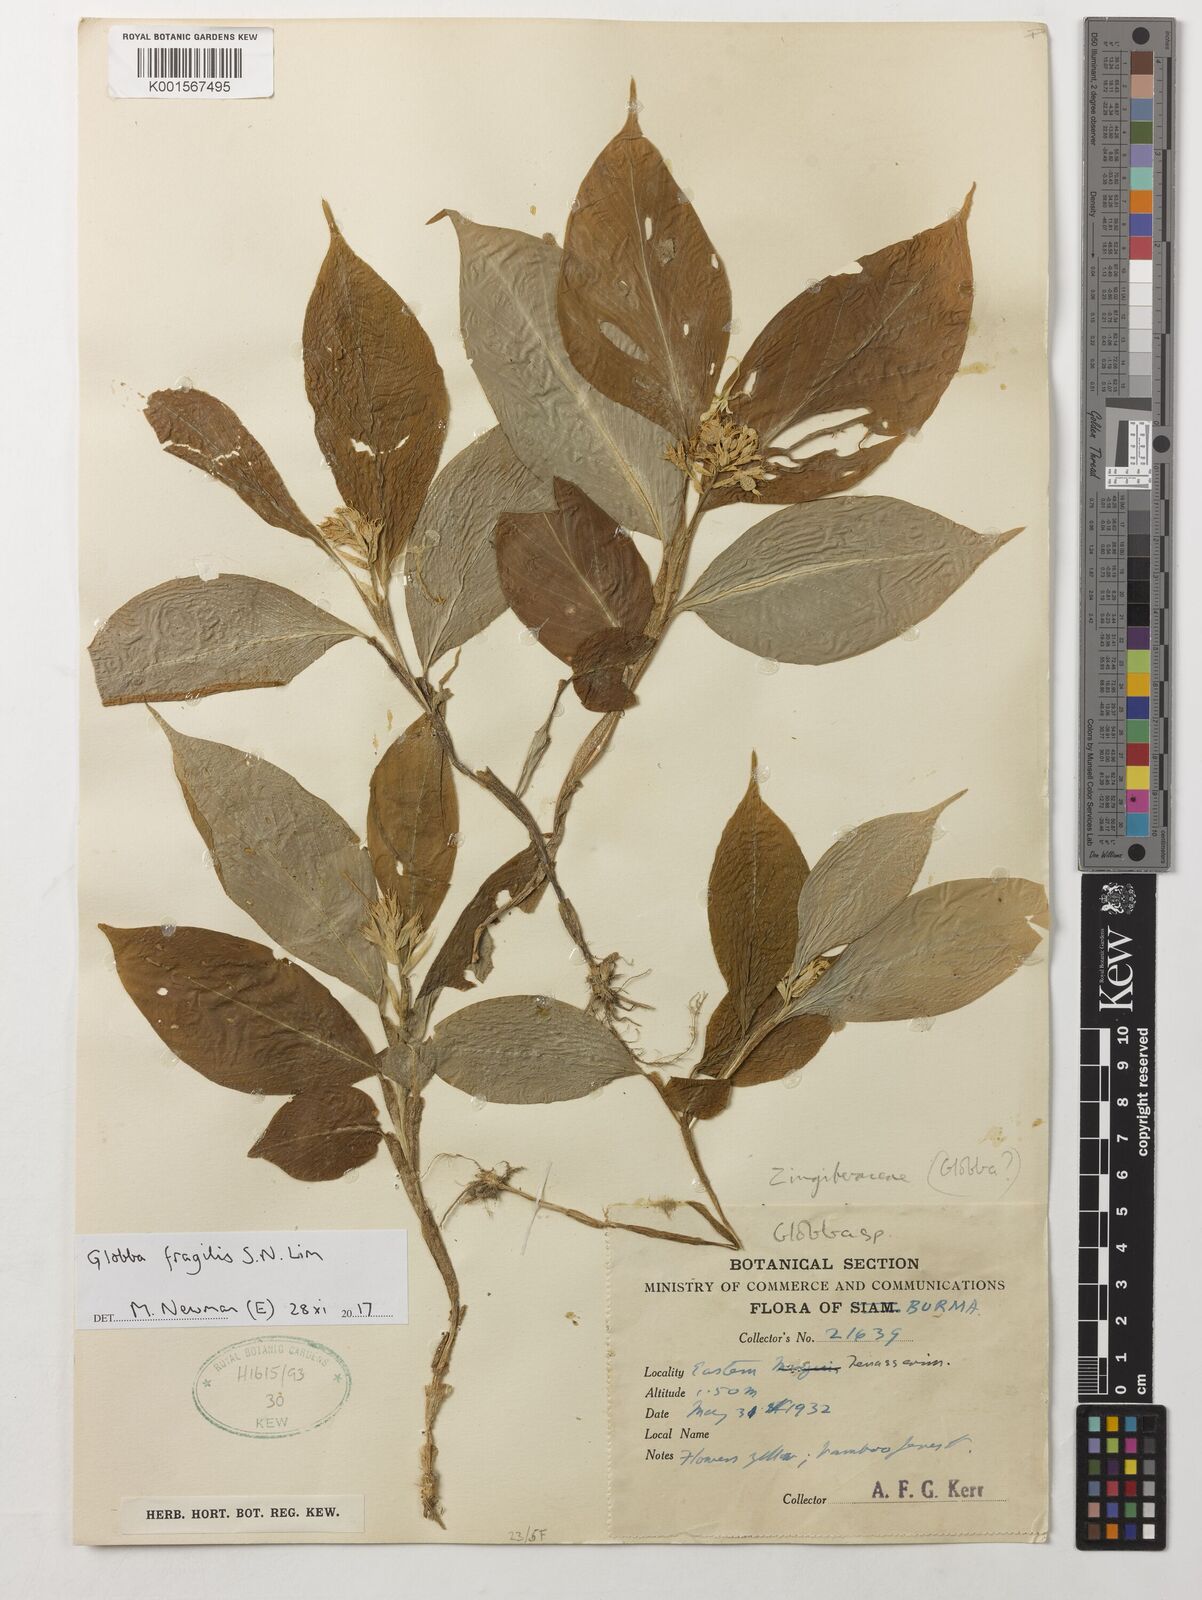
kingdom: Plantae
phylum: Tracheophyta
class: Liliopsida
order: Zingiberales
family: Zingiberaceae
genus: Globba
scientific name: Globba fragilis
